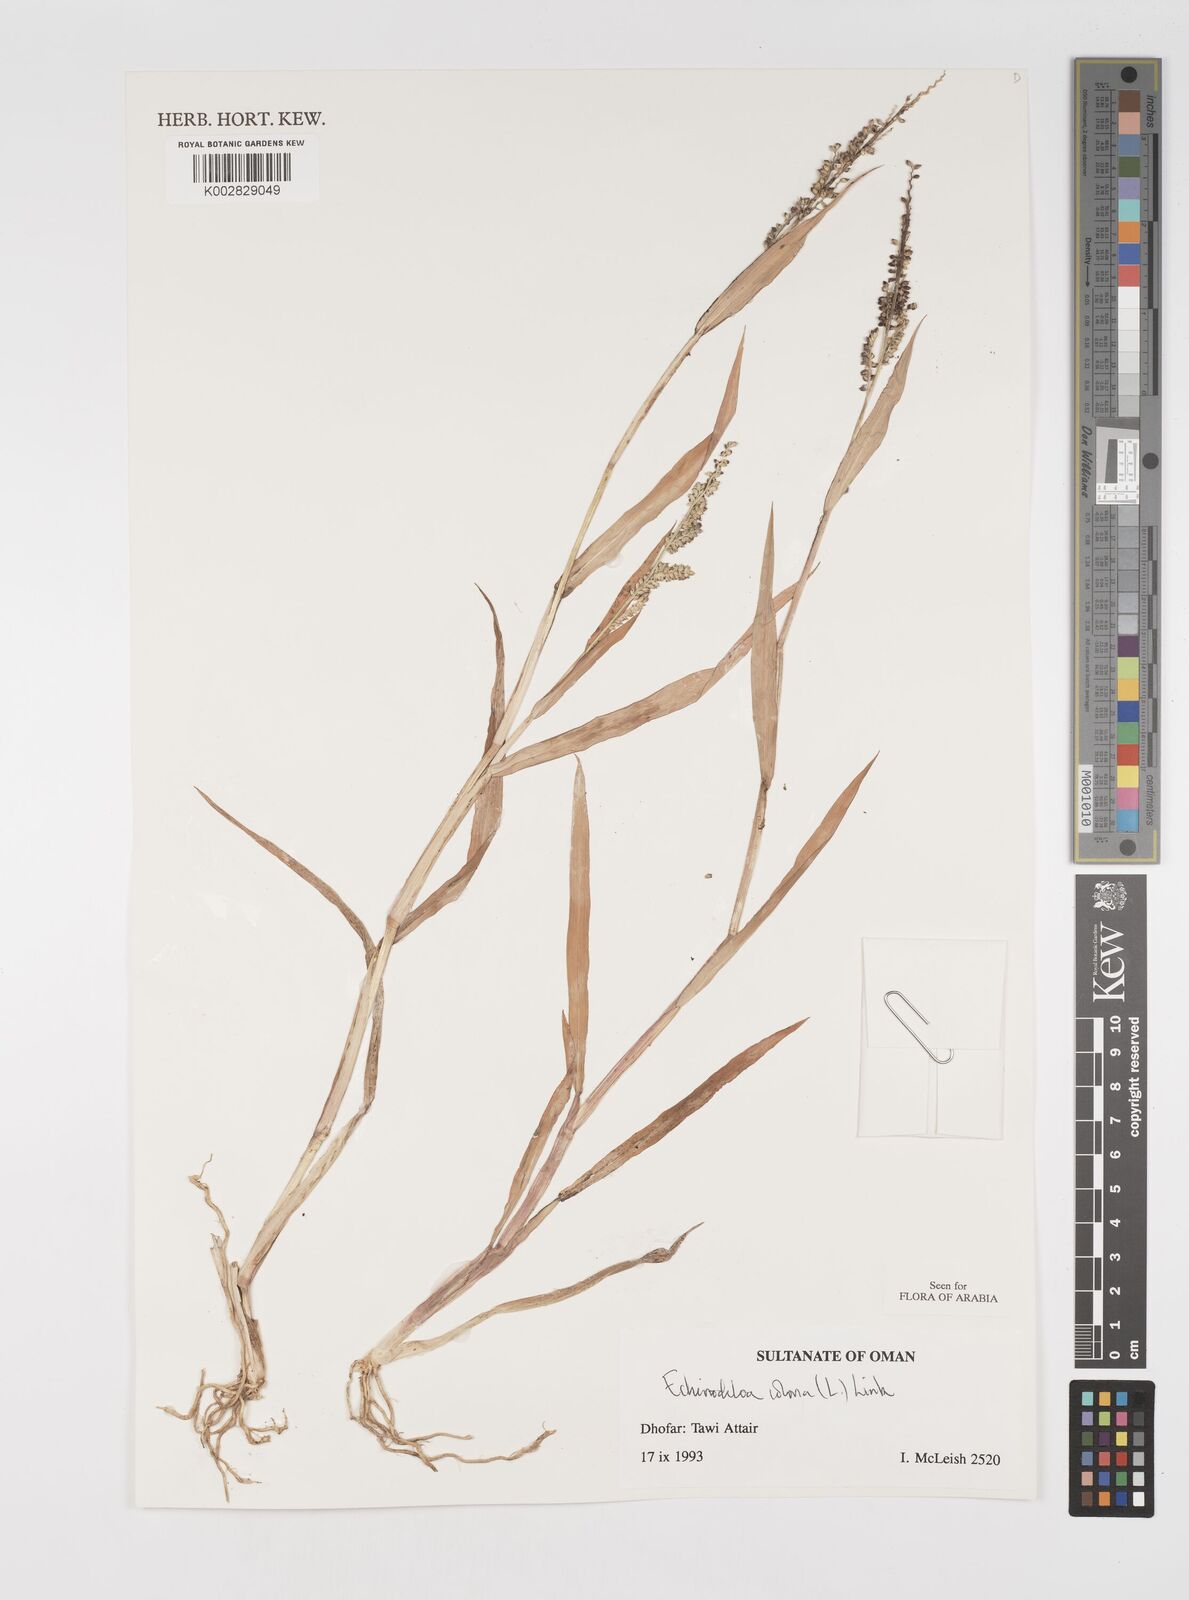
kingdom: Plantae
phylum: Tracheophyta
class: Liliopsida
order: Poales
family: Poaceae
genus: Echinochloa
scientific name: Echinochloa colonum
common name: Jungle rice
